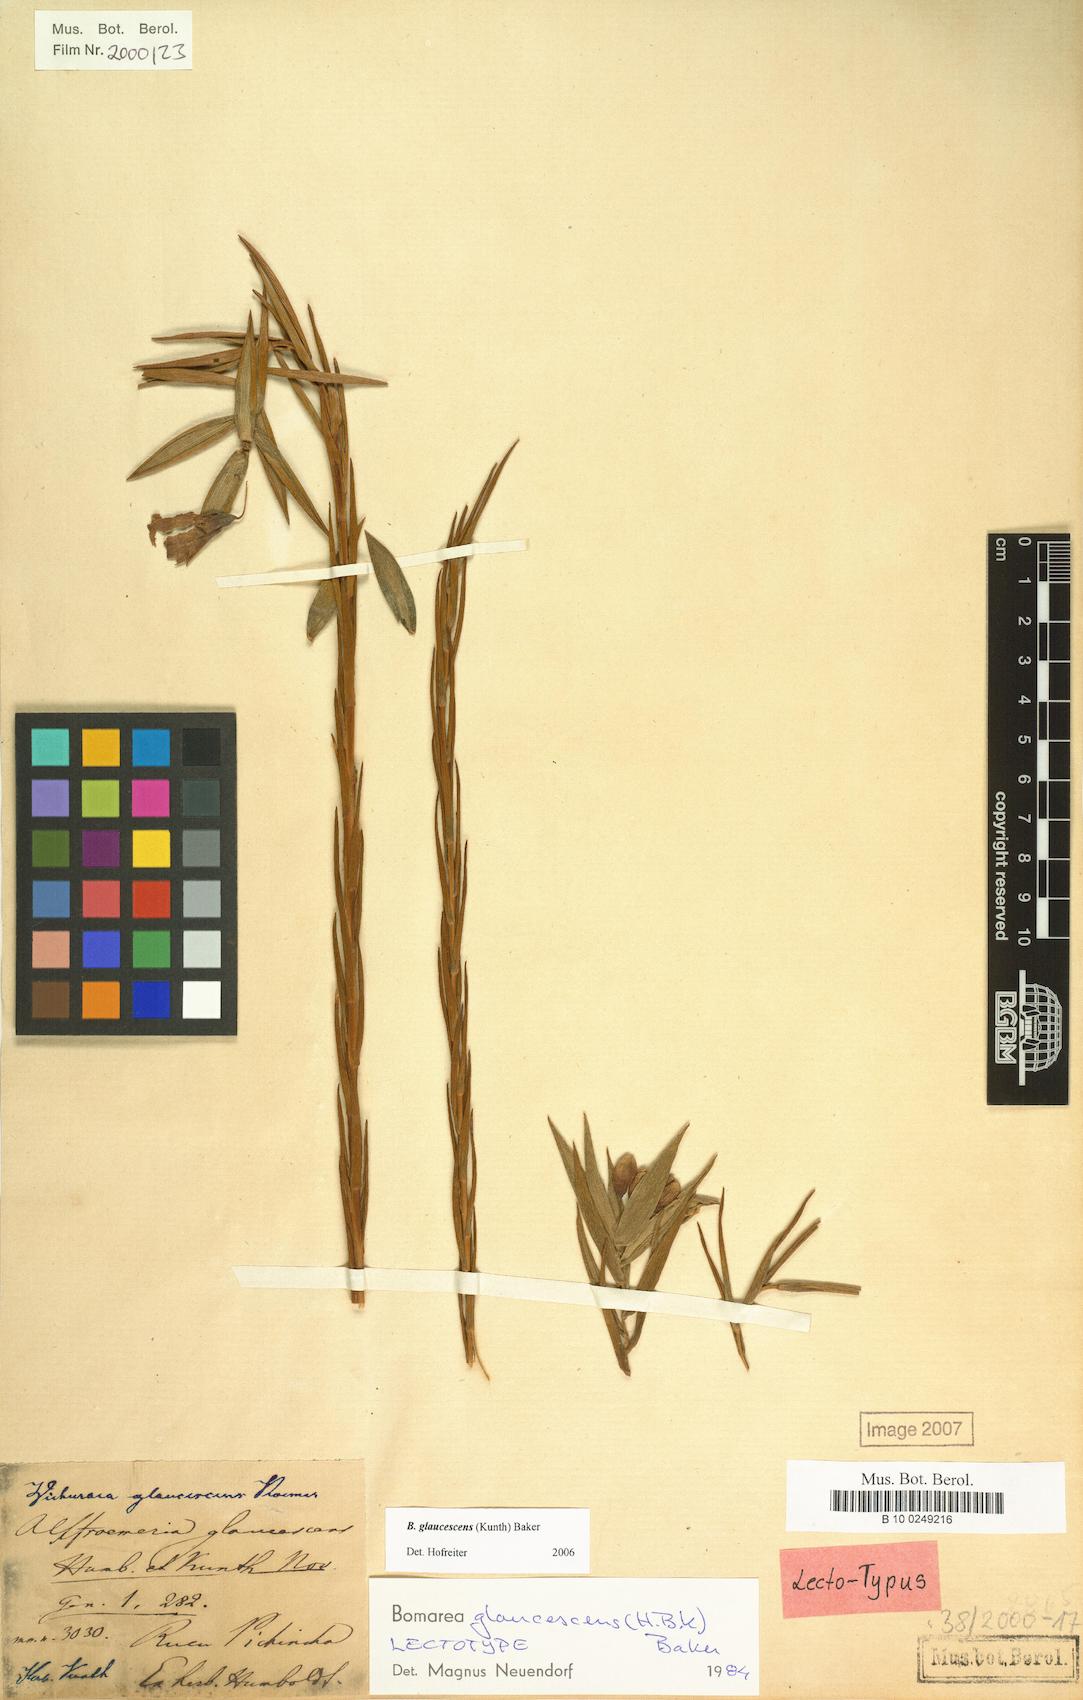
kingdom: Plantae
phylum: Tracheophyta
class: Liliopsida
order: Liliales
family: Alstroemeriaceae
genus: Bomarea
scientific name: Bomarea glaucescens
